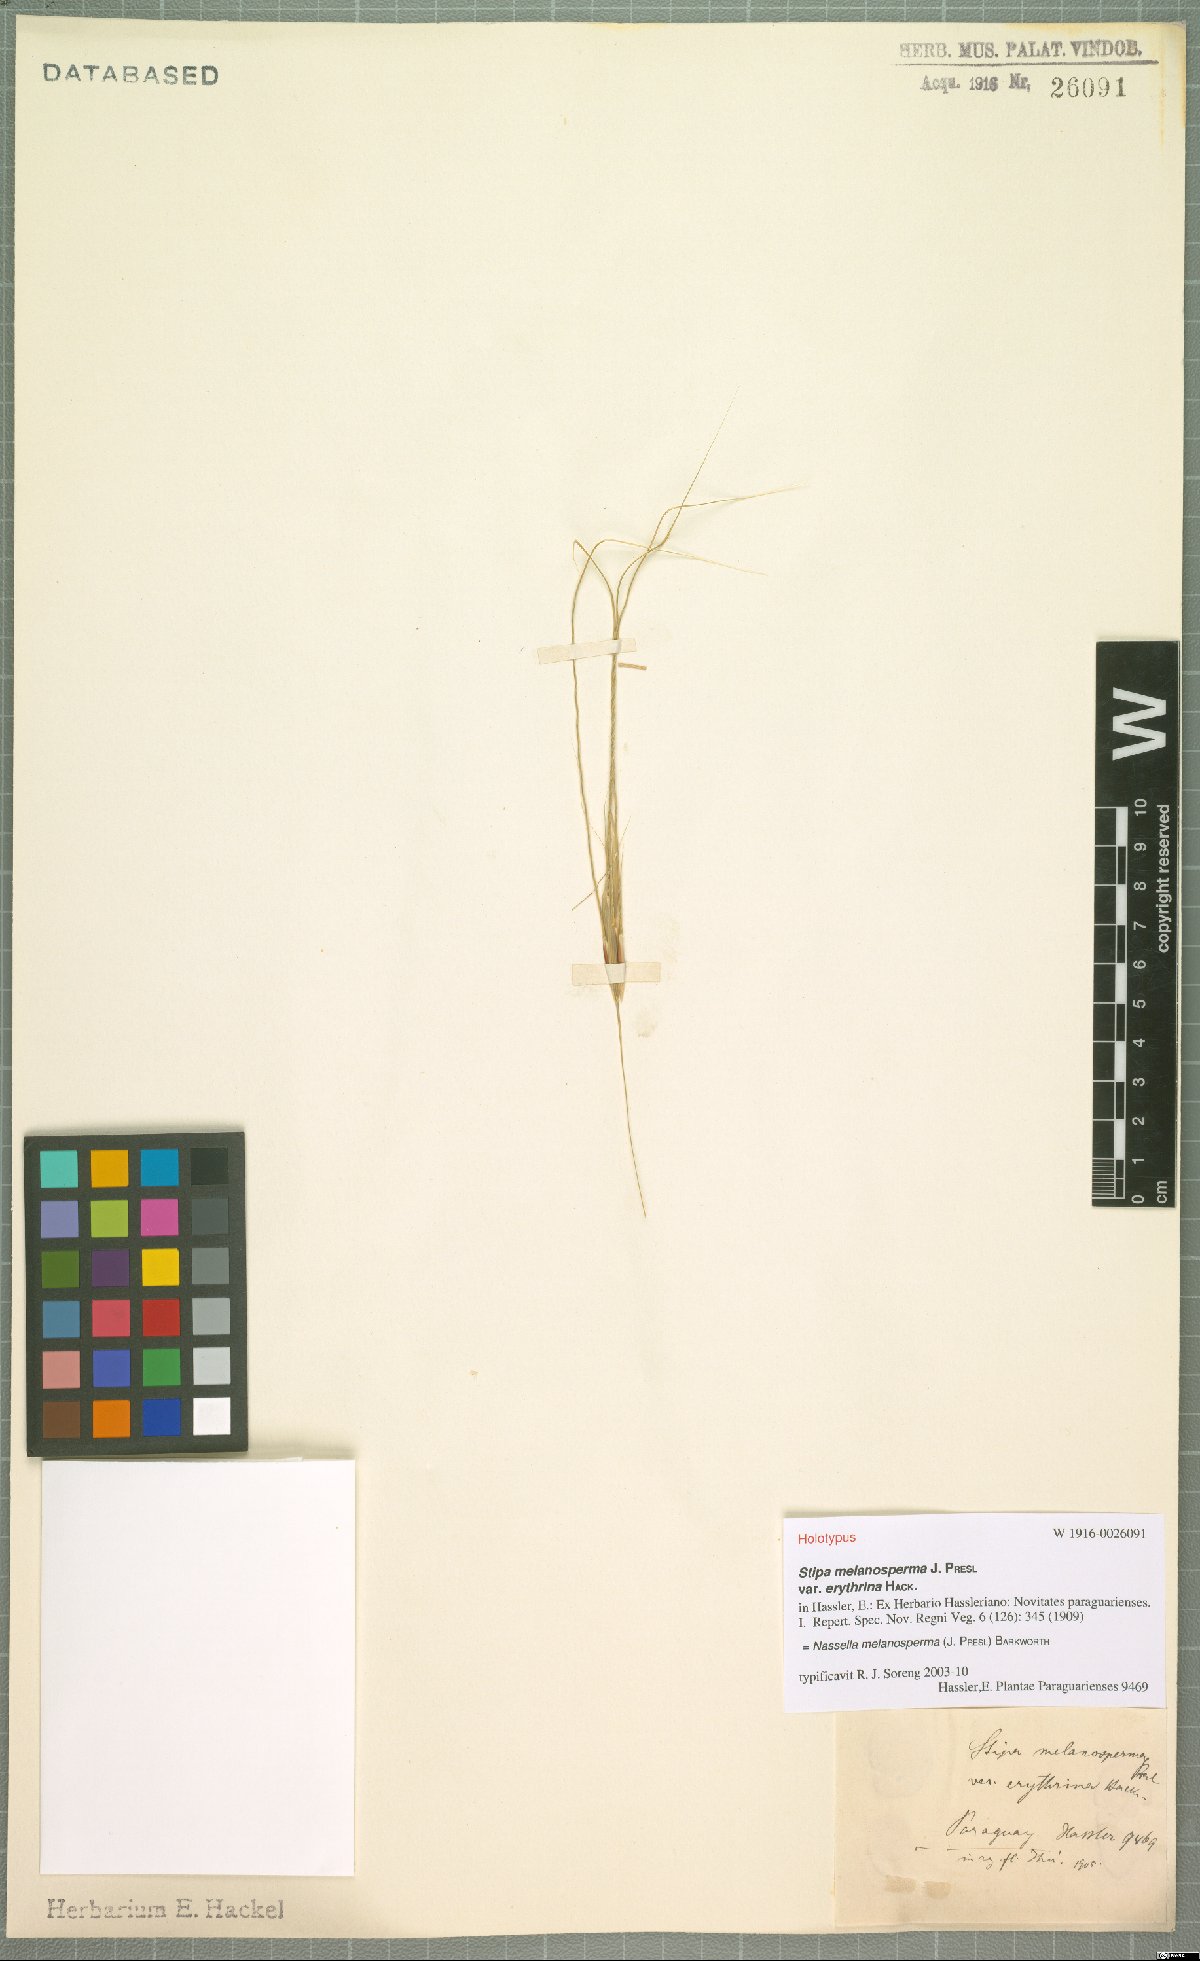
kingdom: Plantae
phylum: Tracheophyta
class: Liliopsida
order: Poales
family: Poaceae
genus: Nassella
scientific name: Nassella melanosperma
